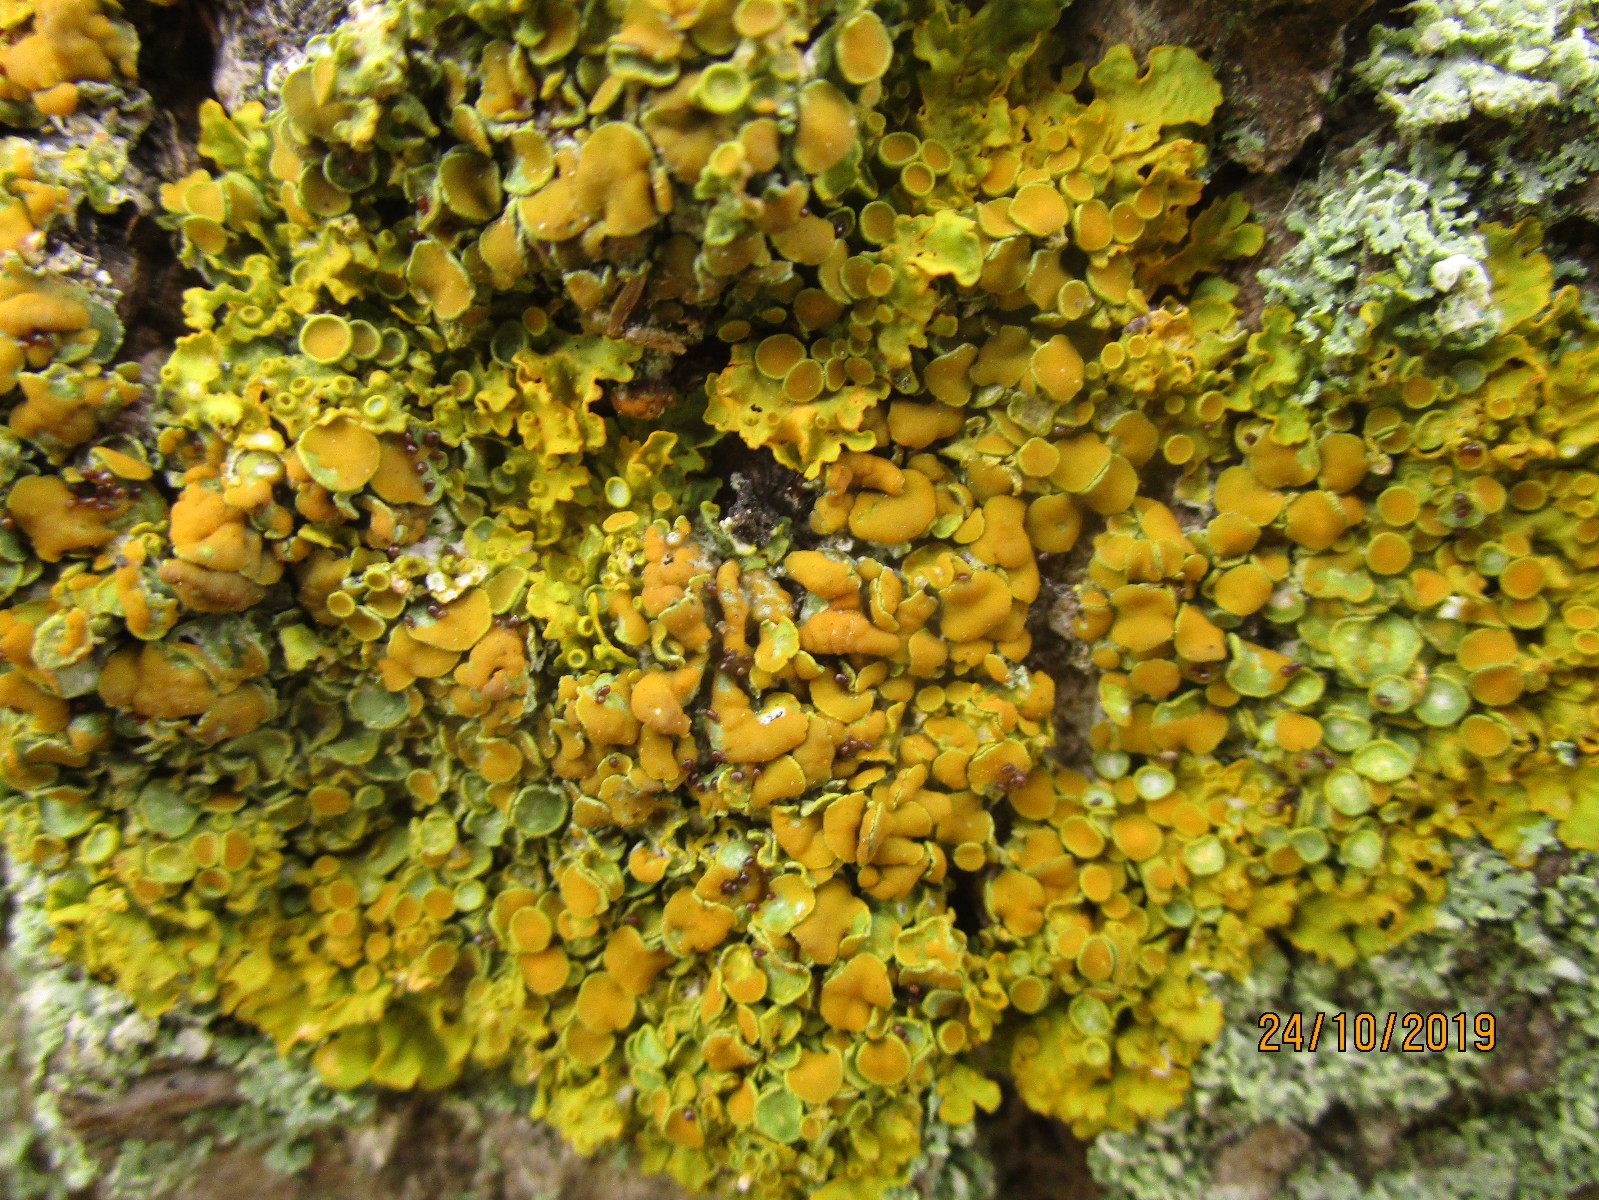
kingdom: Fungi
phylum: Ascomycota
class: Lecanoromycetes
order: Teloschistales
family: Teloschistaceae
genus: Xanthoria
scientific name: Xanthoria parietina
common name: almindelig væggelav
